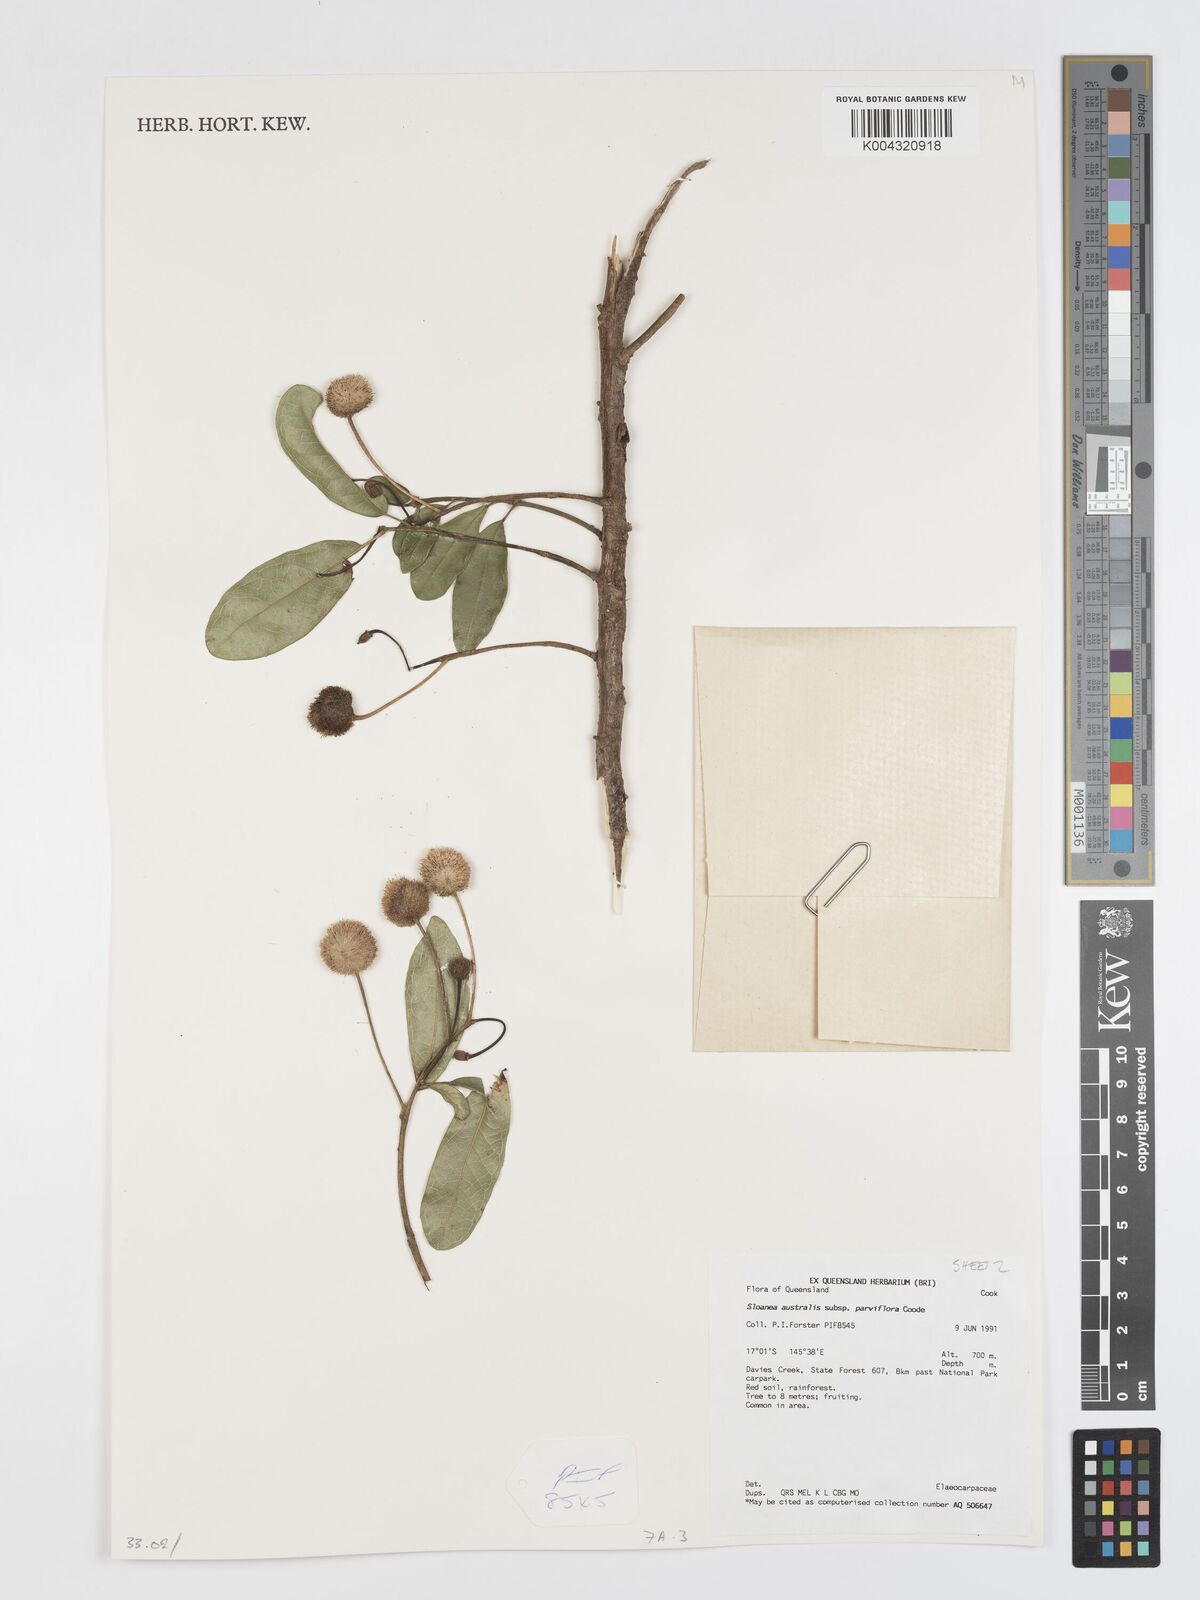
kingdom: Plantae
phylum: Tracheophyta
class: Magnoliopsida
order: Oxalidales
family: Elaeocarpaceae
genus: Sloanea
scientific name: Sloanea australis
